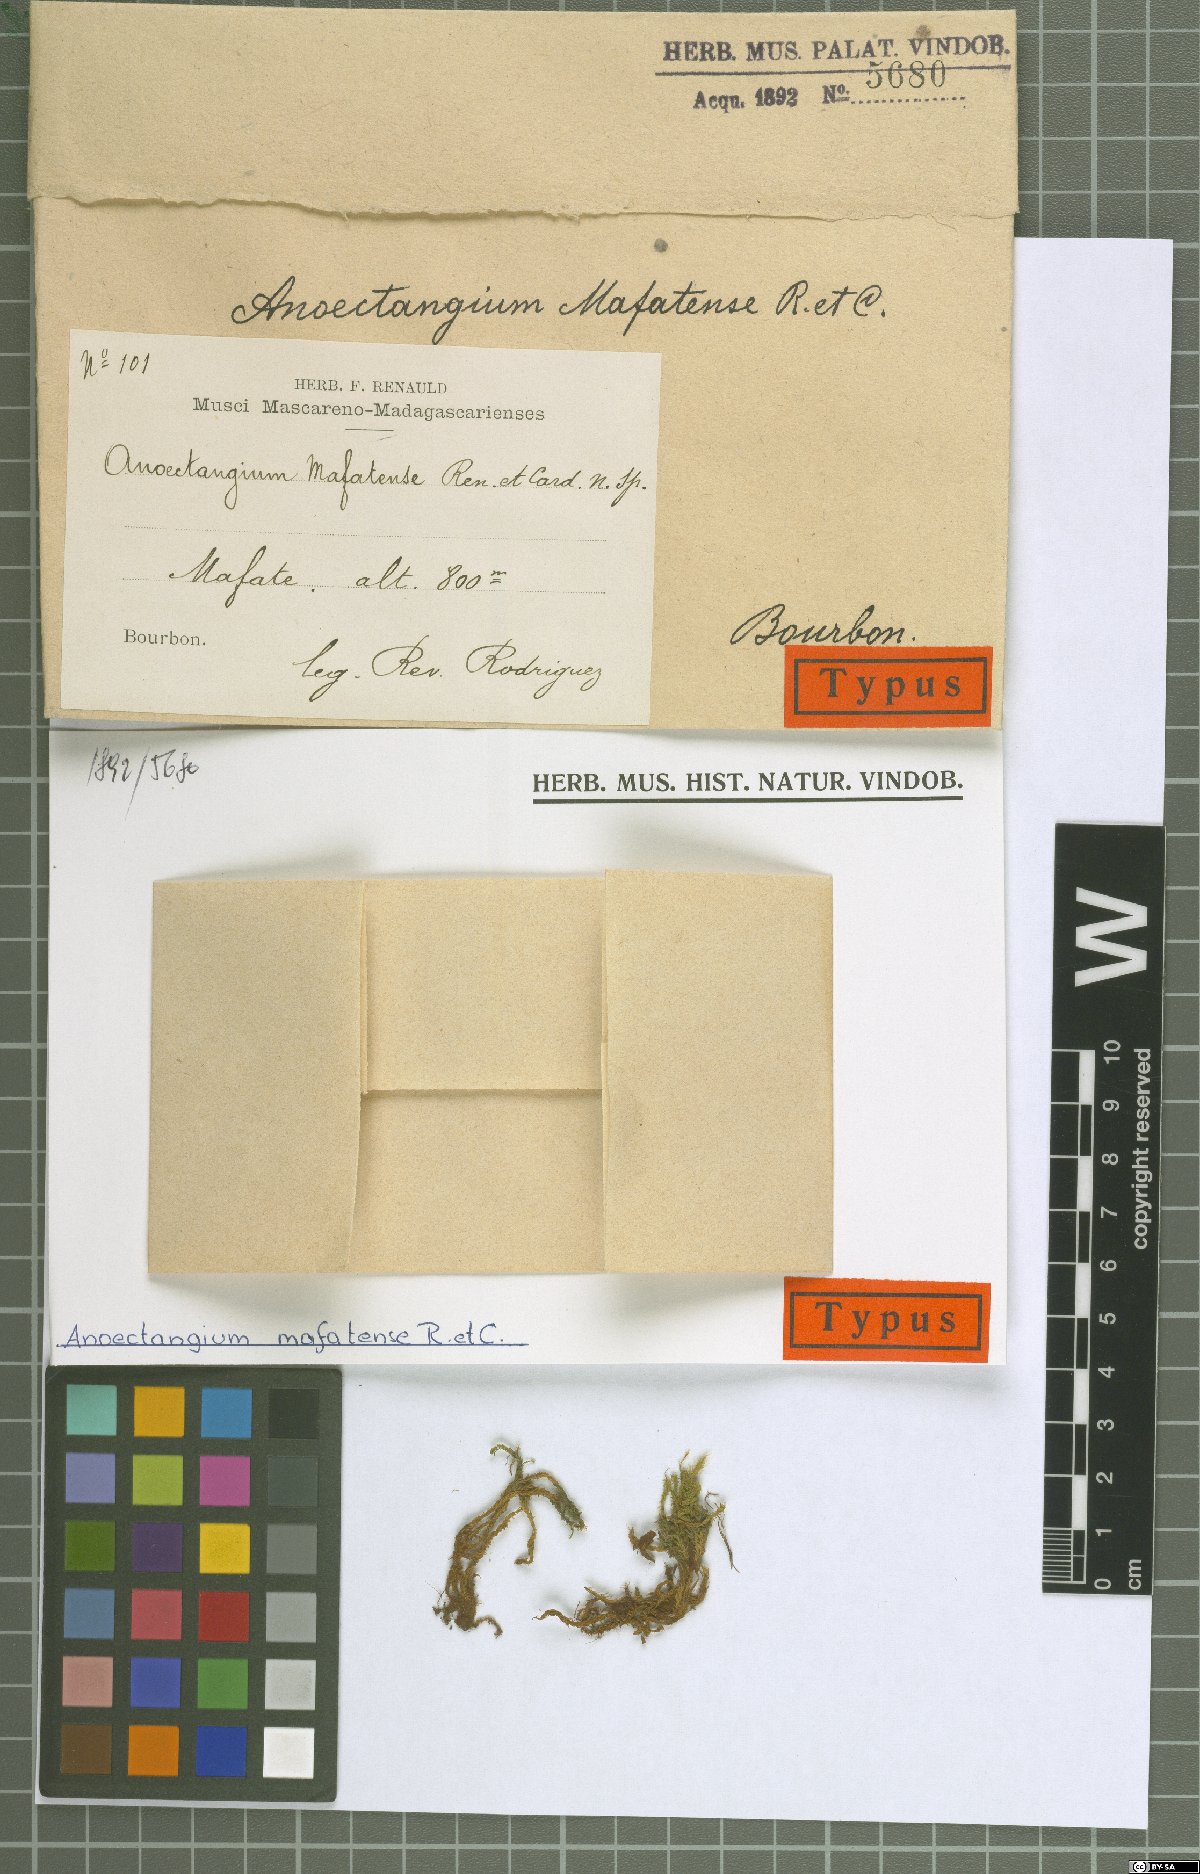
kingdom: Plantae
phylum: Bryophyta
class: Bryopsida
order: Pottiales
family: Pottiaceae
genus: Anoectangium
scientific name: Anoectangium mafatense
